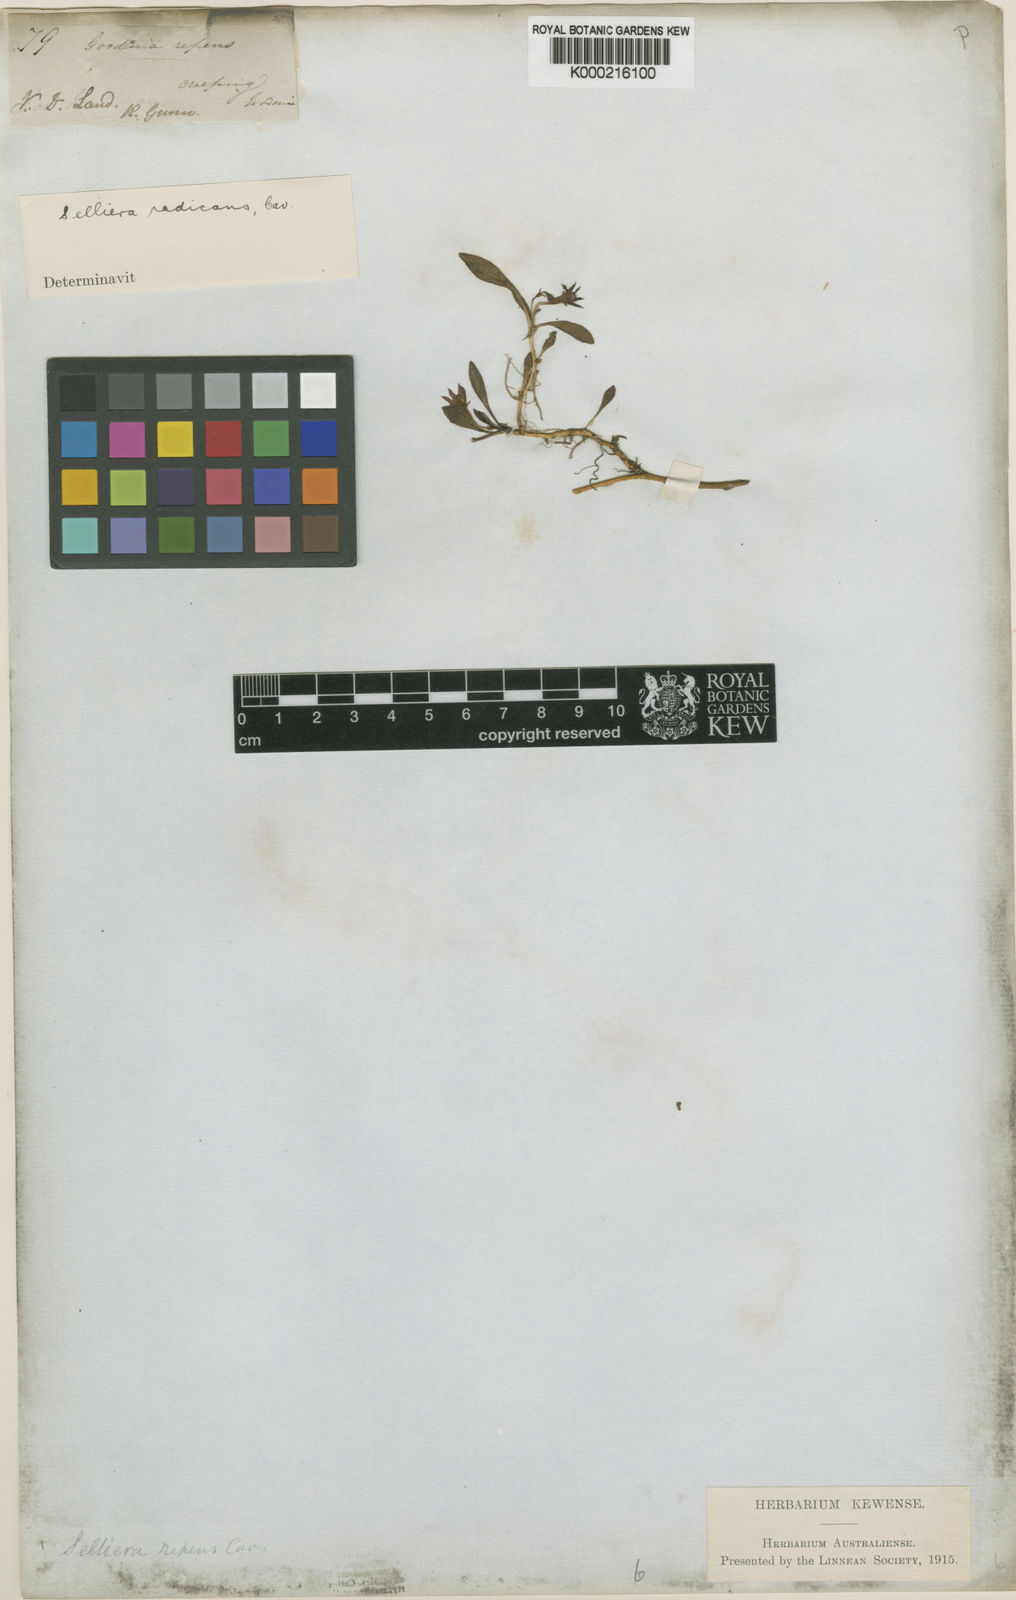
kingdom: Plantae
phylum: Tracheophyta
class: Magnoliopsida
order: Asterales
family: Goodeniaceae
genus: Goodenia
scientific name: Goodenia radicans
